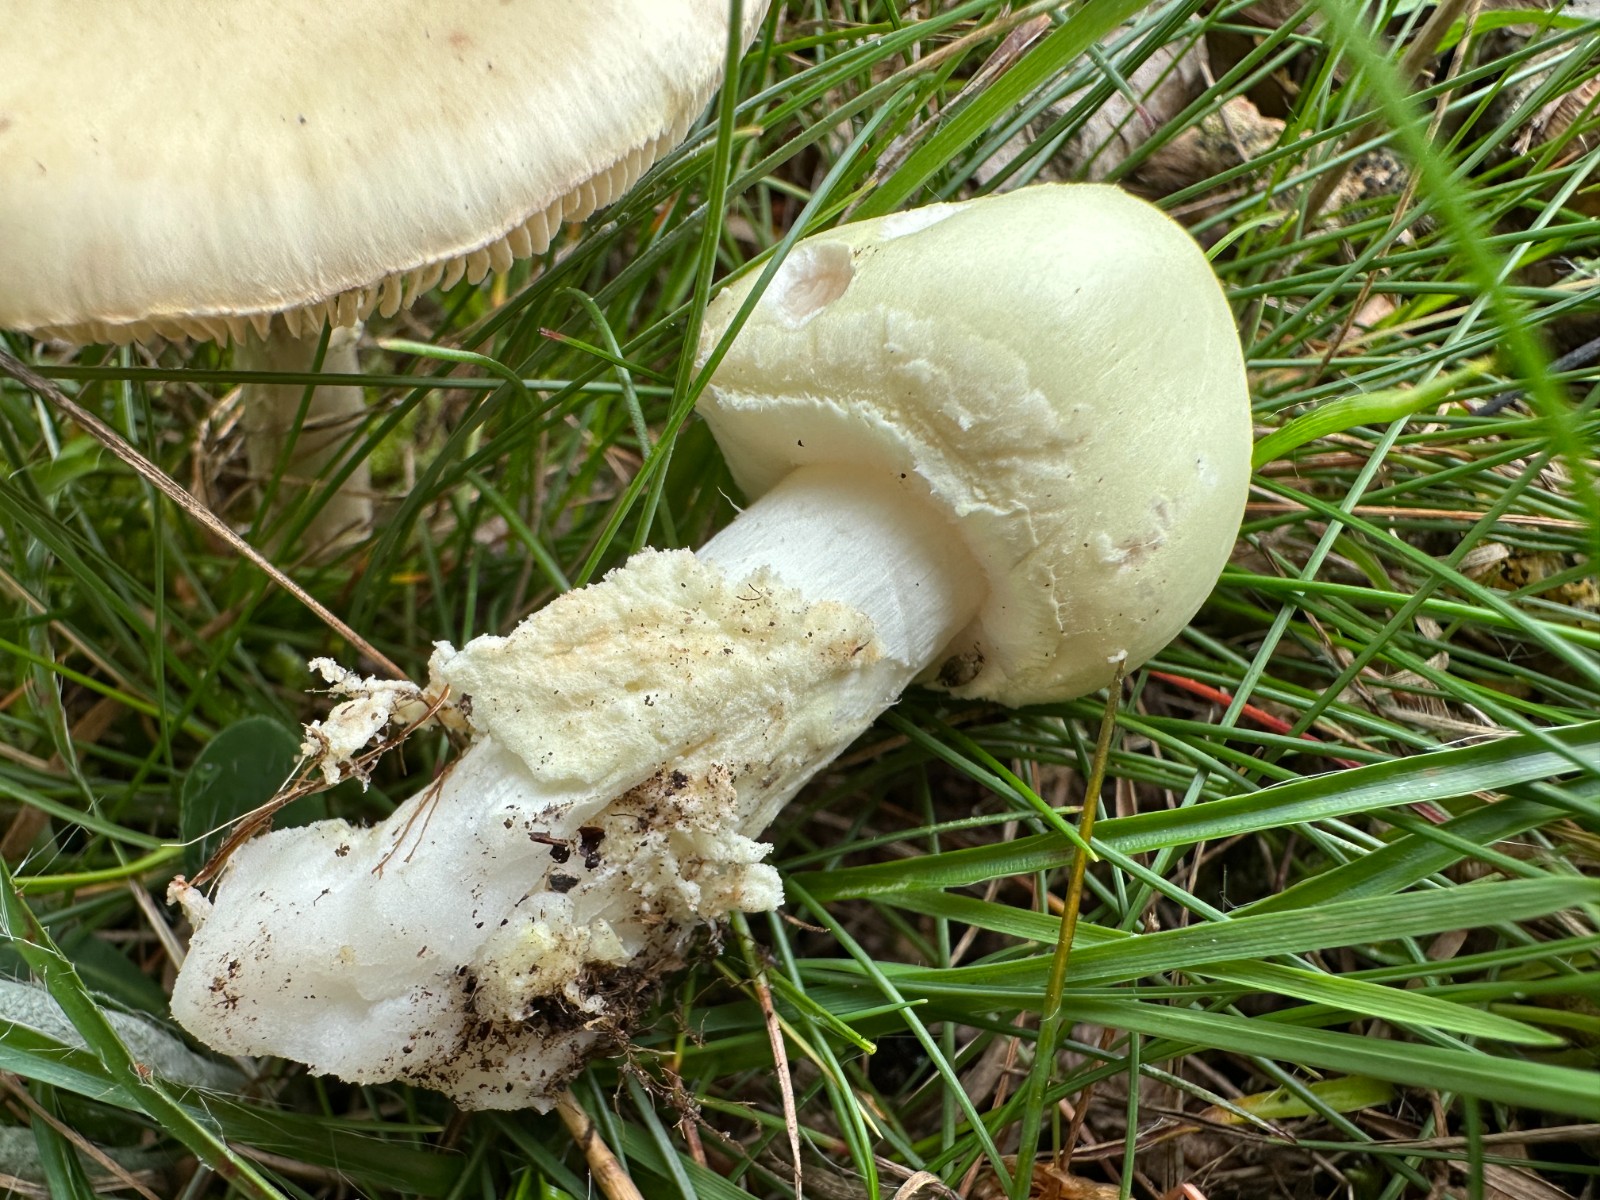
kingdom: Fungi
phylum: Basidiomycota
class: Agaricomycetes
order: Agaricales
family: Amanitaceae
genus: Amanita
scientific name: Amanita
